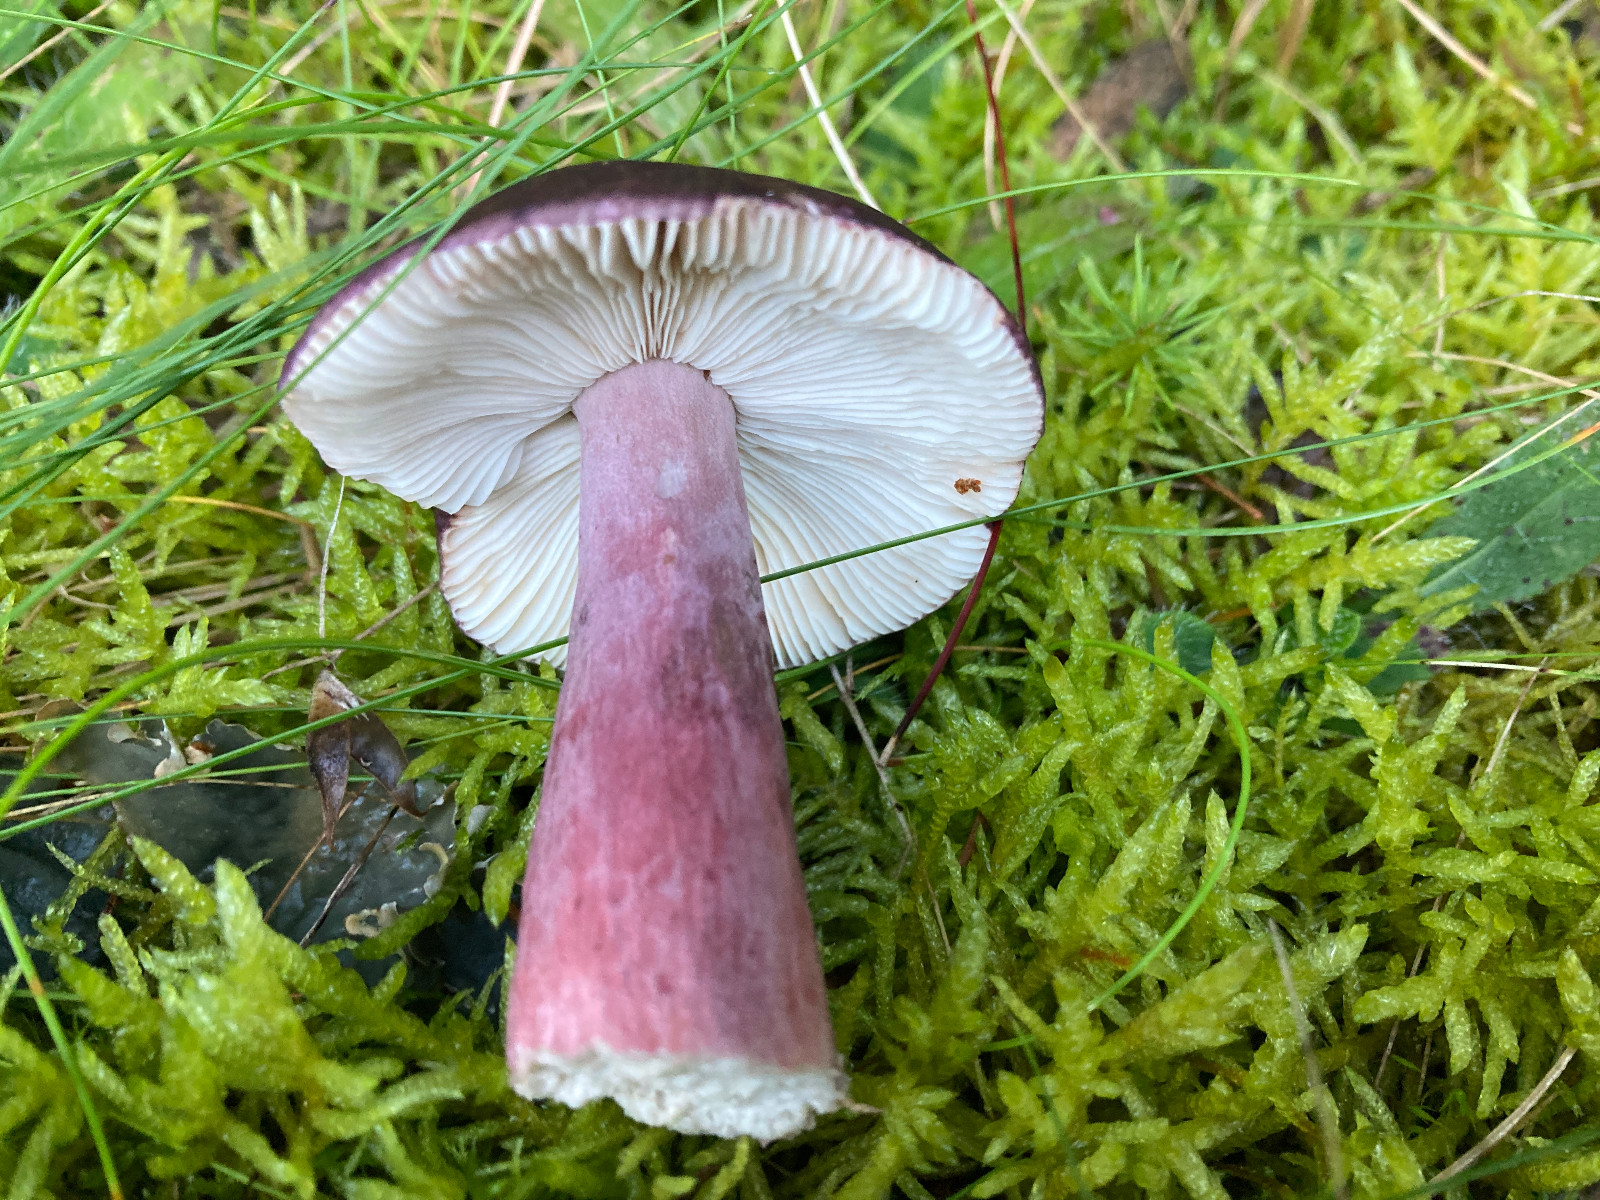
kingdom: Fungi
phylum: Basidiomycota
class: Agaricomycetes
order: Russulales
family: Russulaceae
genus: Russula
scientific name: Russula queletii
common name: Quélets skørhat
